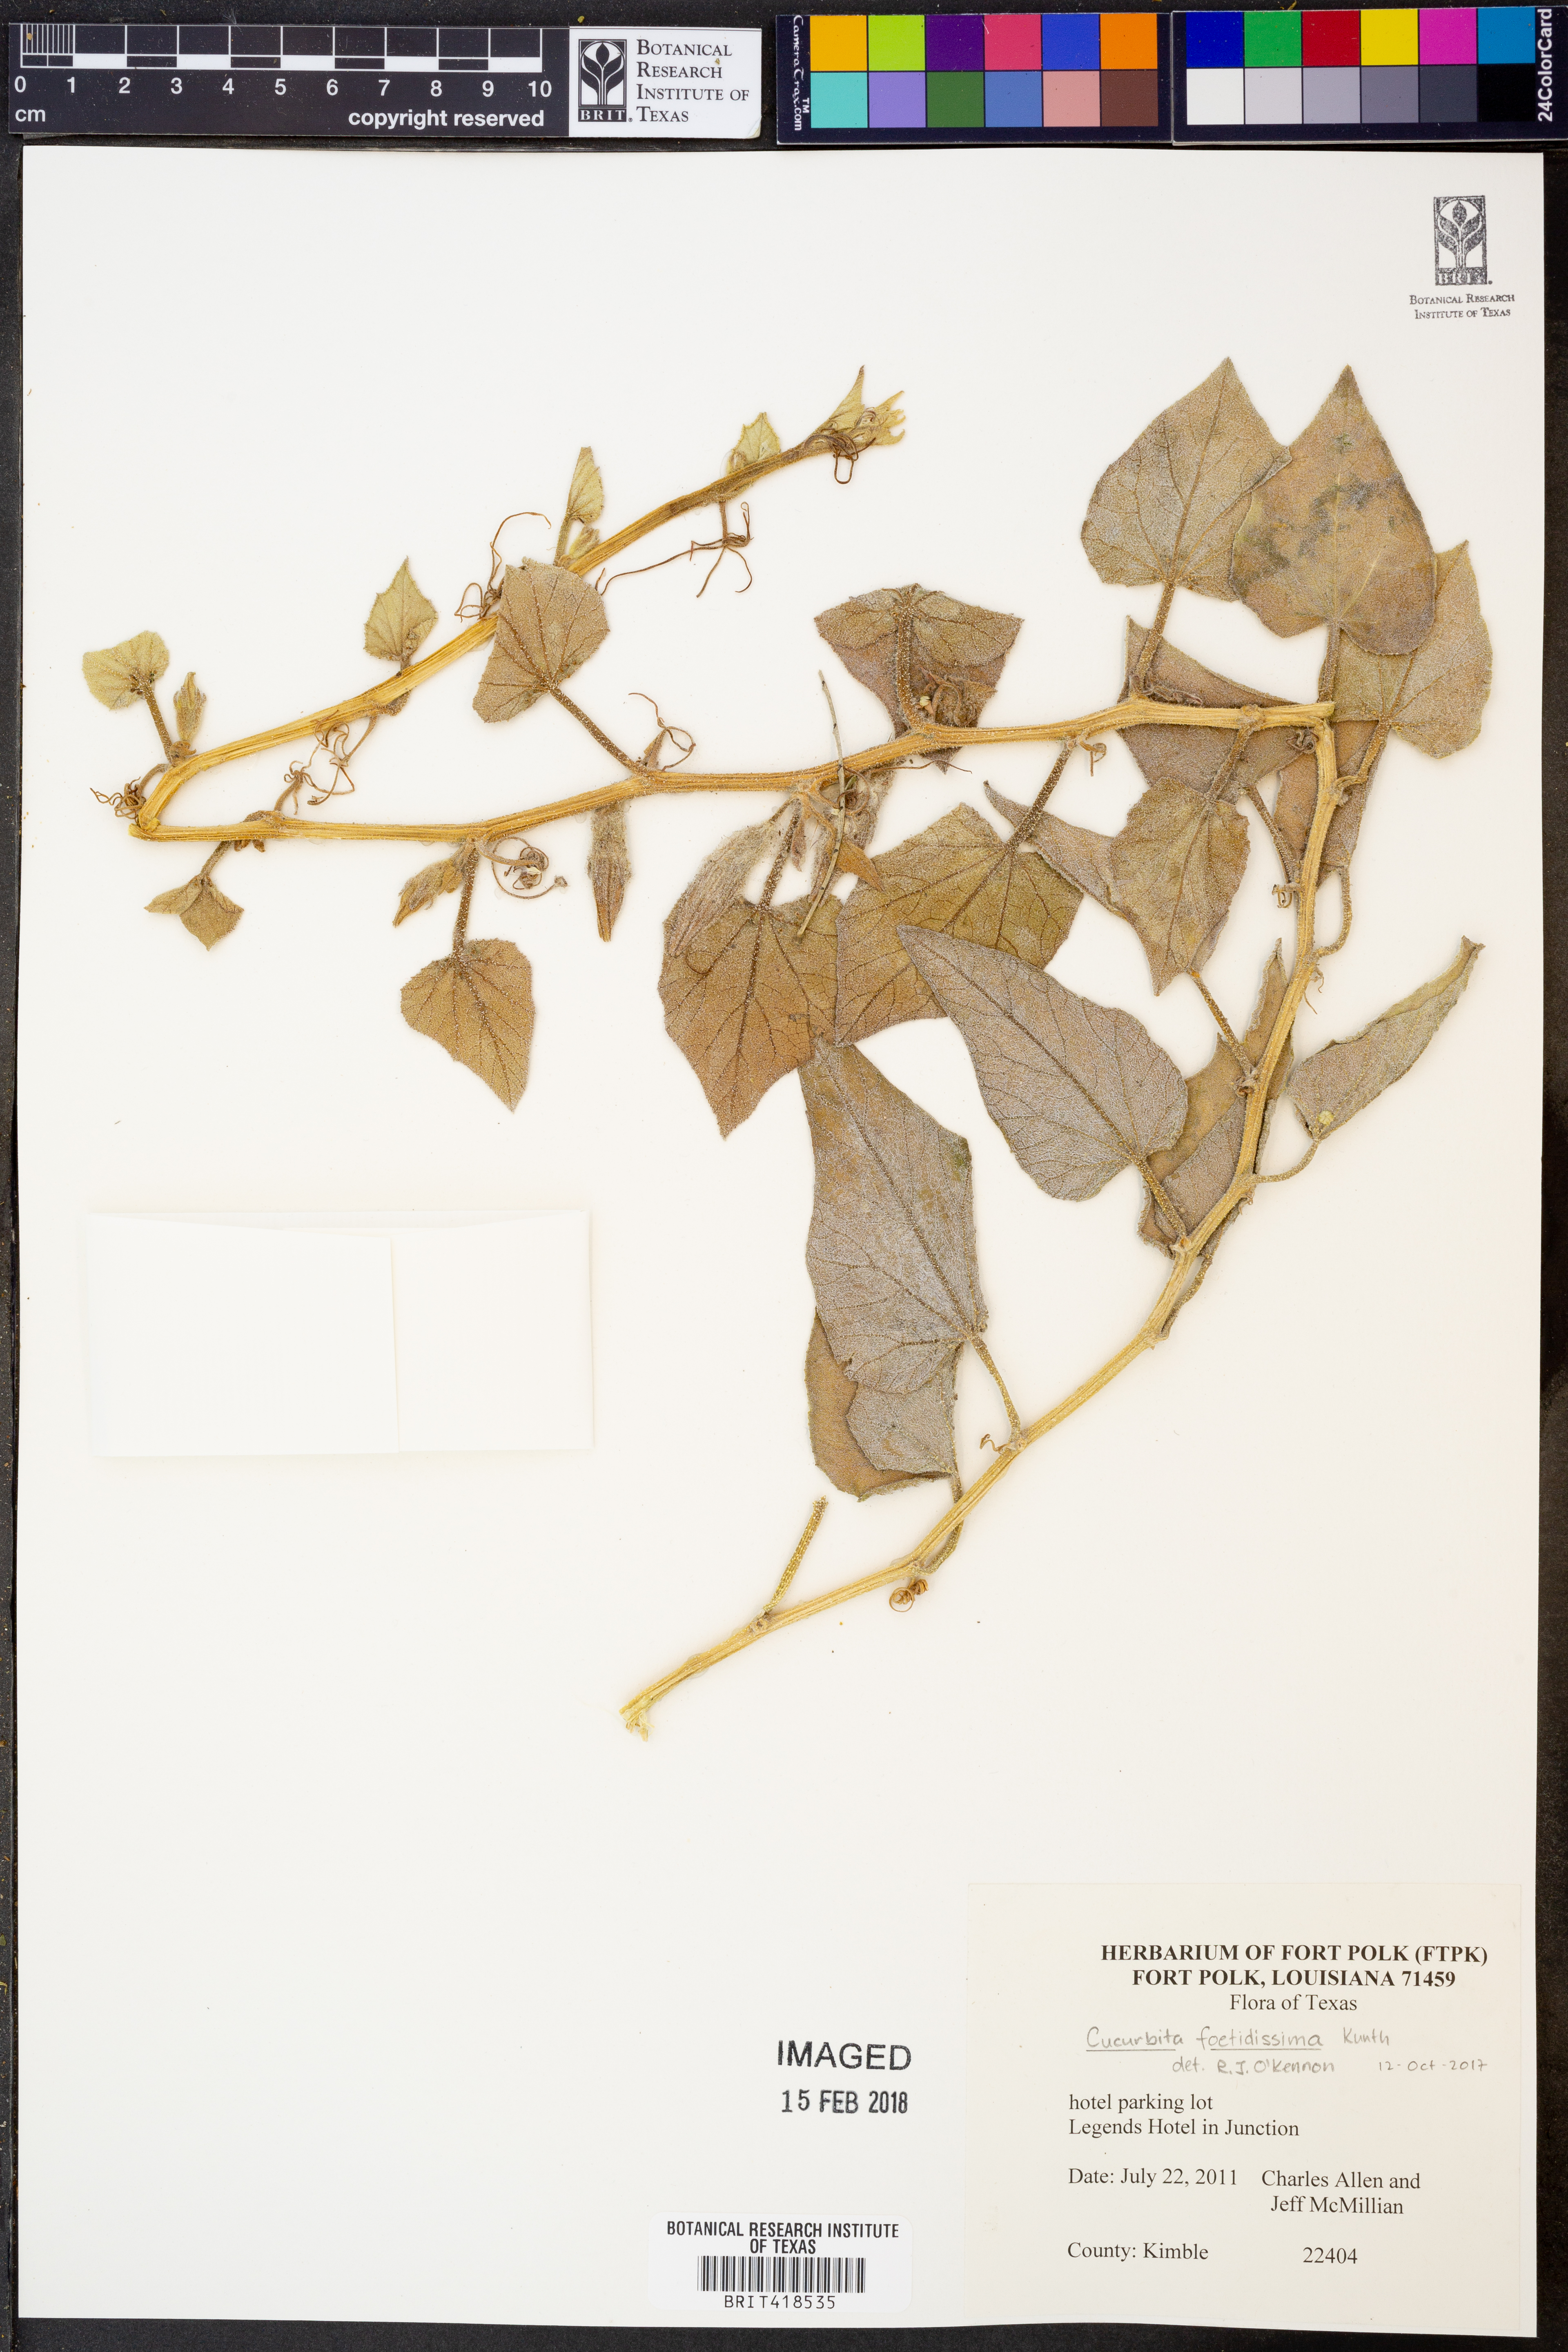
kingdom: Plantae
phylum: Tracheophyta
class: Magnoliopsida
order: Cucurbitales
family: Cucurbitaceae
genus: Cucurbita
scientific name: Cucurbita foetidissima
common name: Buffalo gourd
